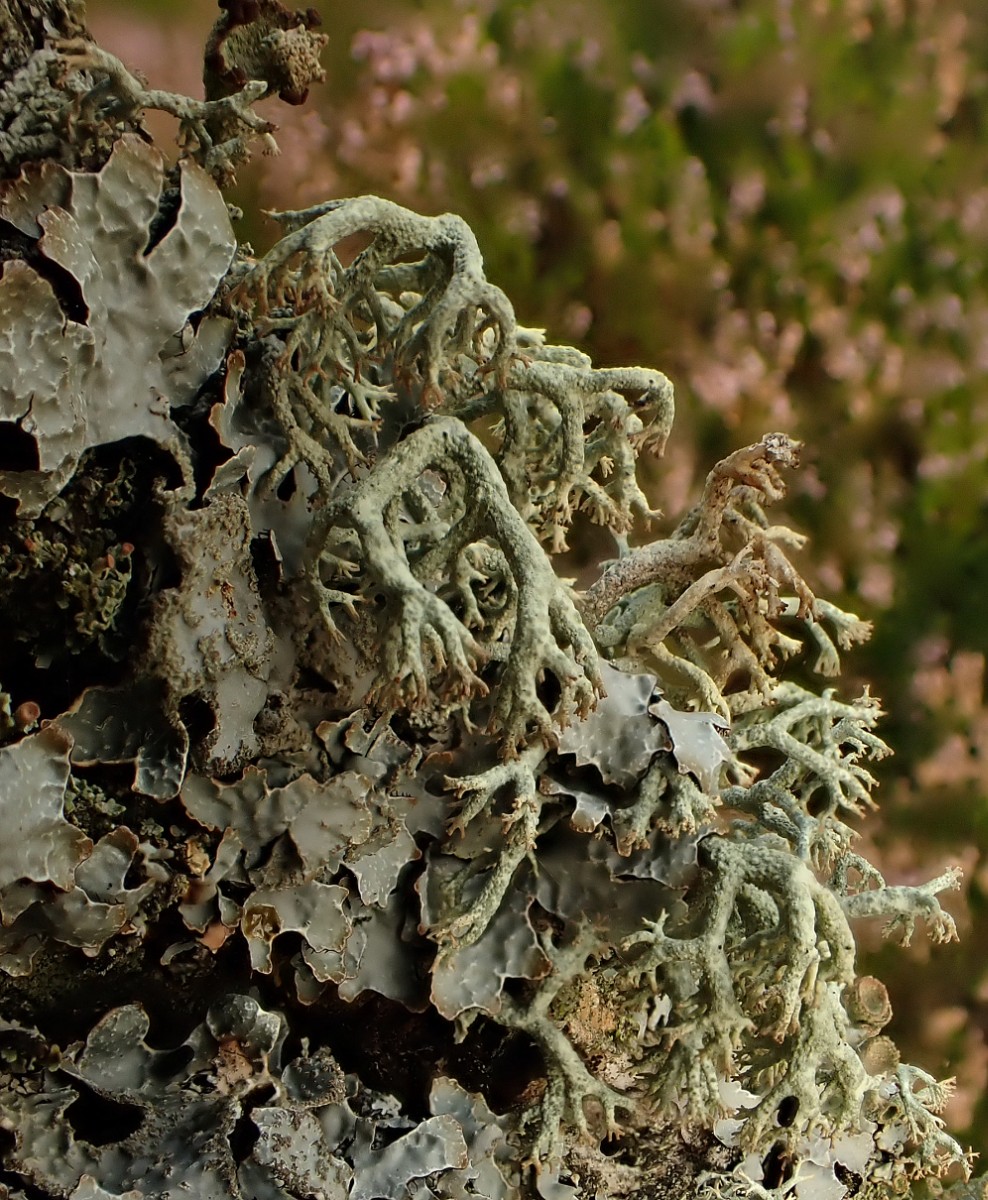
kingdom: Fungi
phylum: Ascomycota
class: Lecanoromycetes
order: Lecanorales
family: Cladoniaceae
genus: Cladonia
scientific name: Cladonia ciliata
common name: spinkel rensdyrlav
